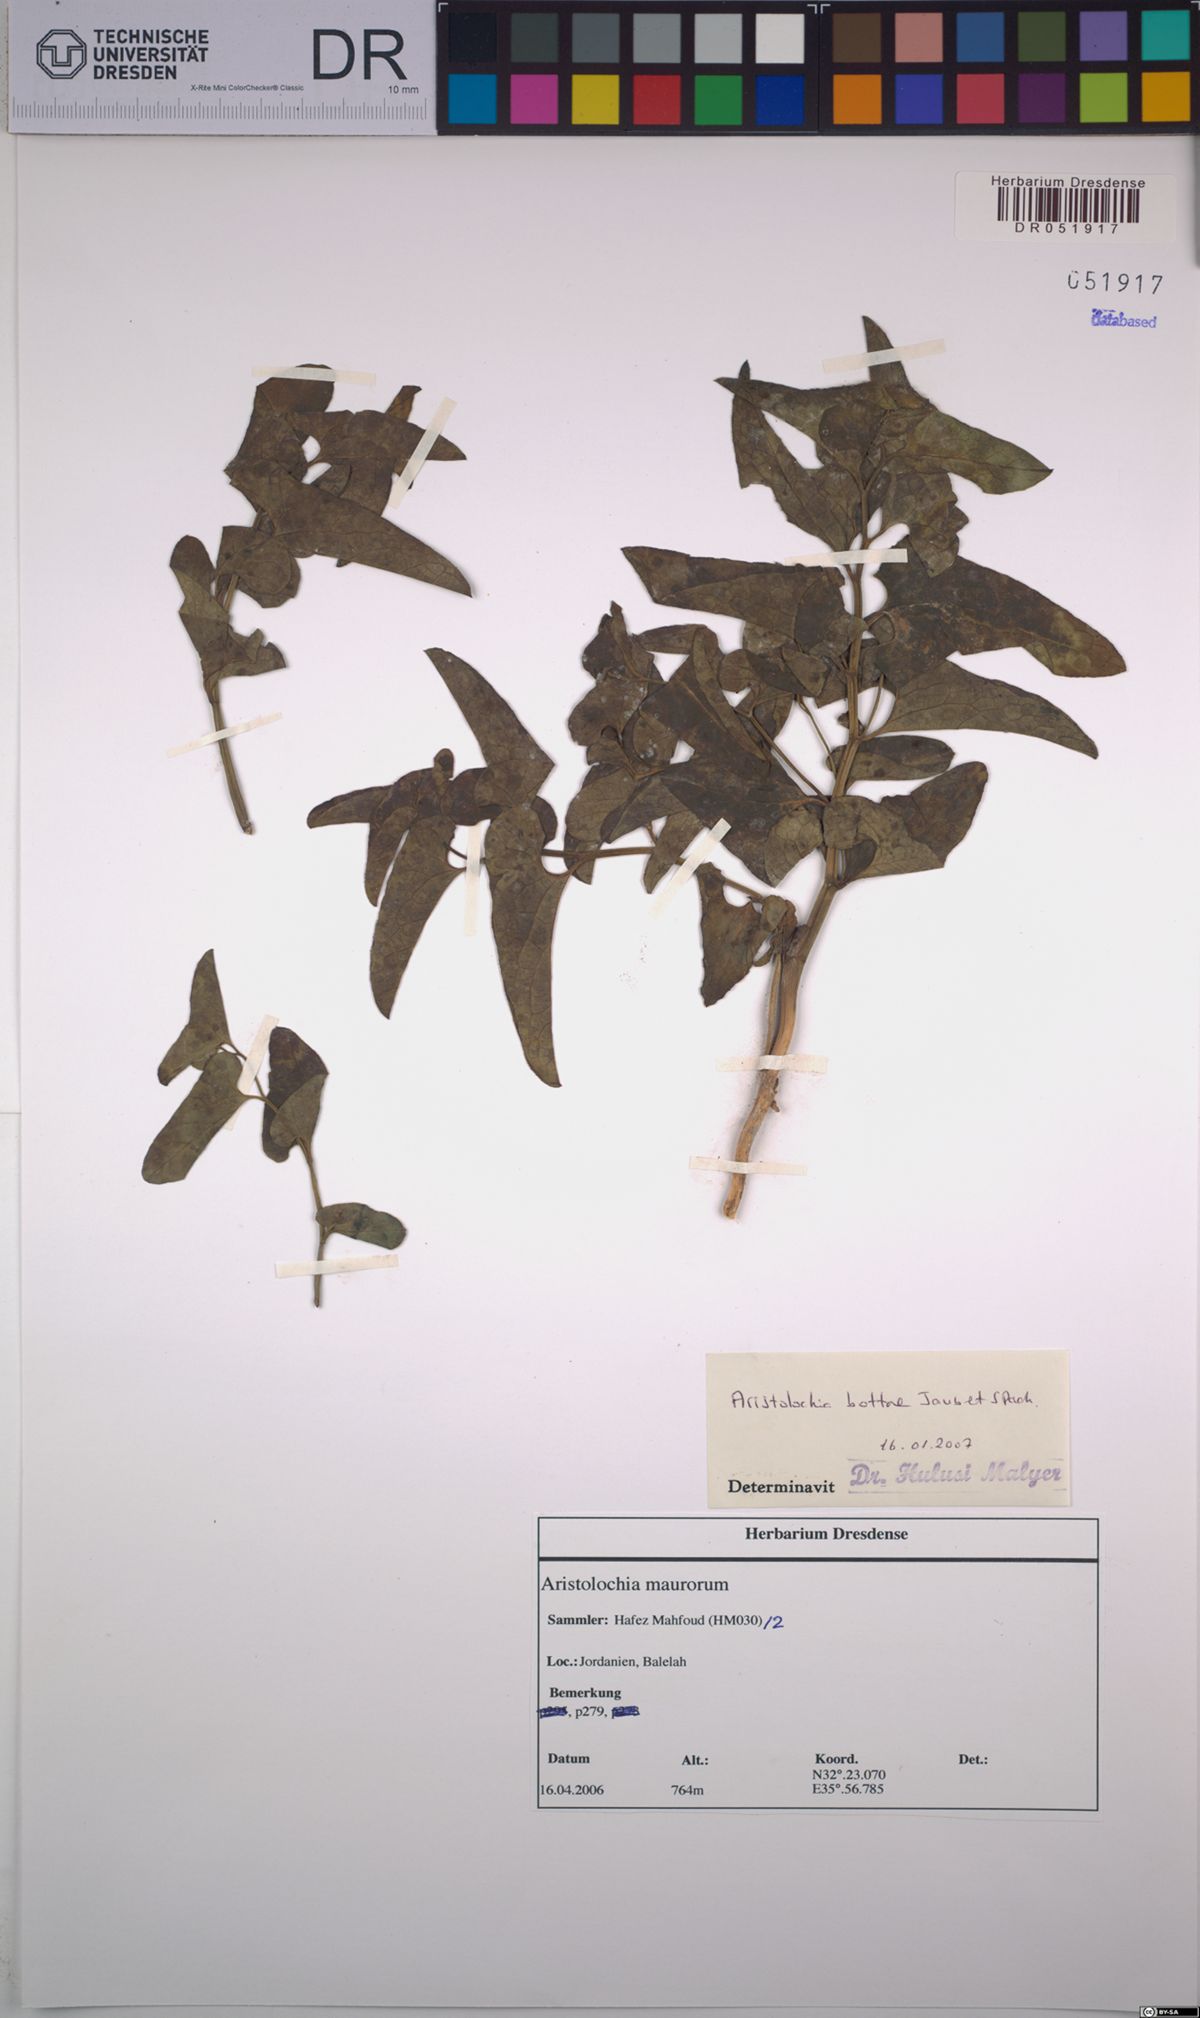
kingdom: Plantae
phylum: Tracheophyta
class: Magnoliopsida
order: Piperales
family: Aristolochiaceae
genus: Aristolochia
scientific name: Aristolochia bottae
